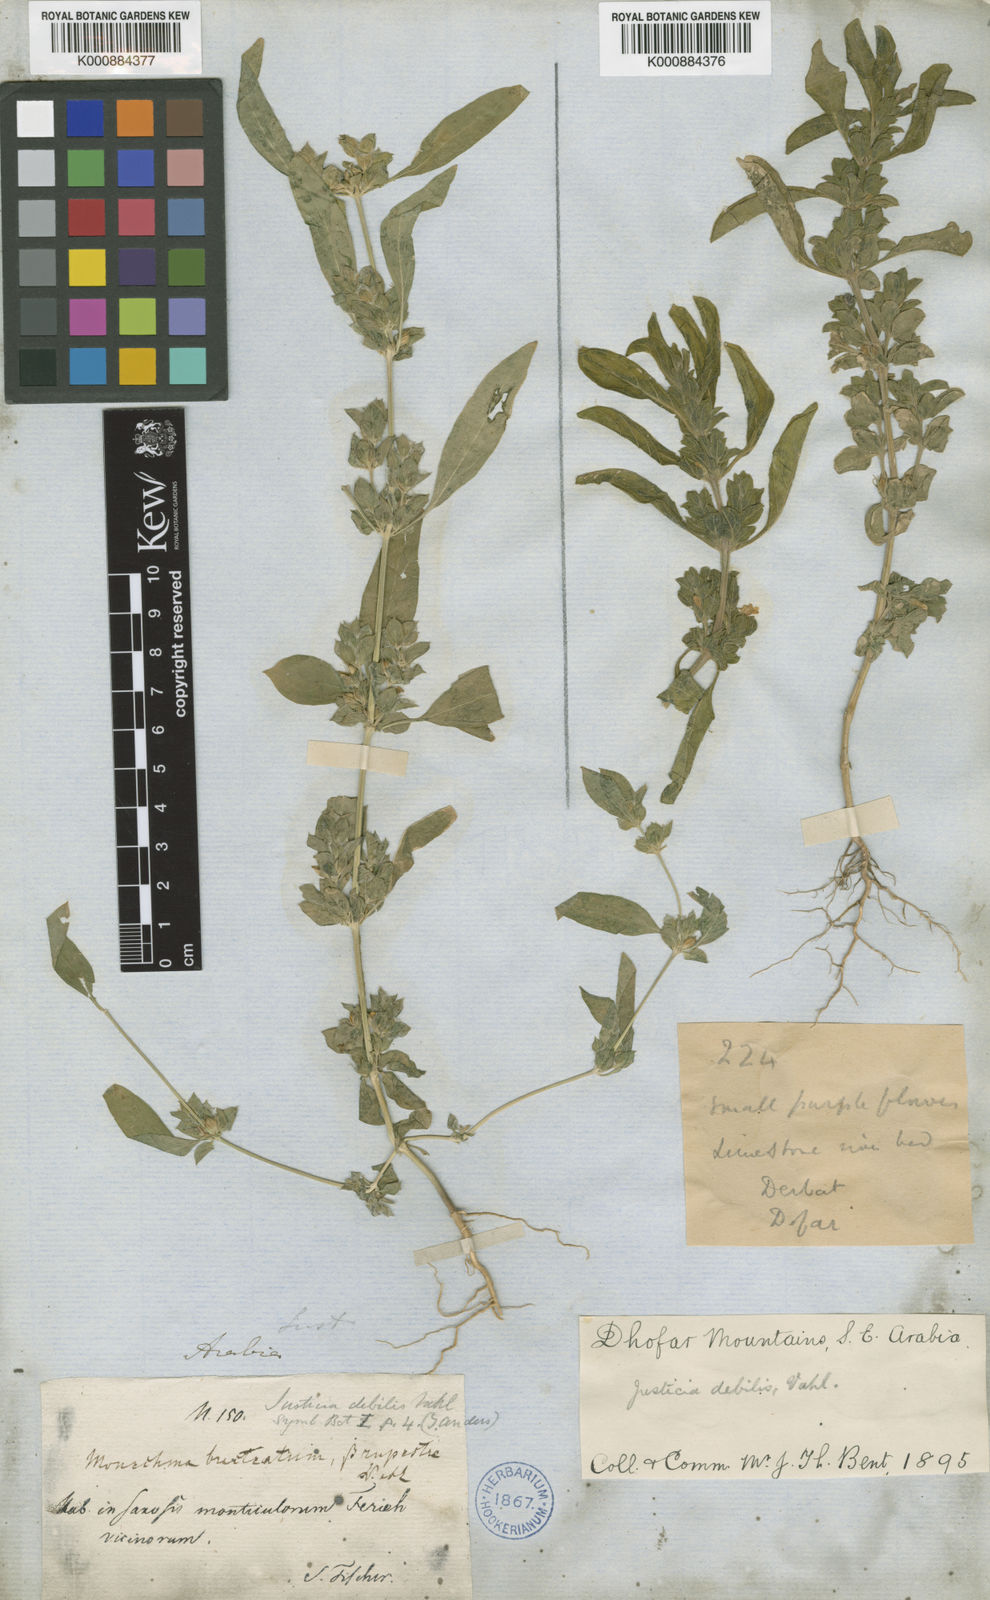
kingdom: Plantae
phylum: Tracheophyta
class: Magnoliopsida
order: Lamiales
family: Acanthaceae
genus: Monechma
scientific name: Monechma debile
